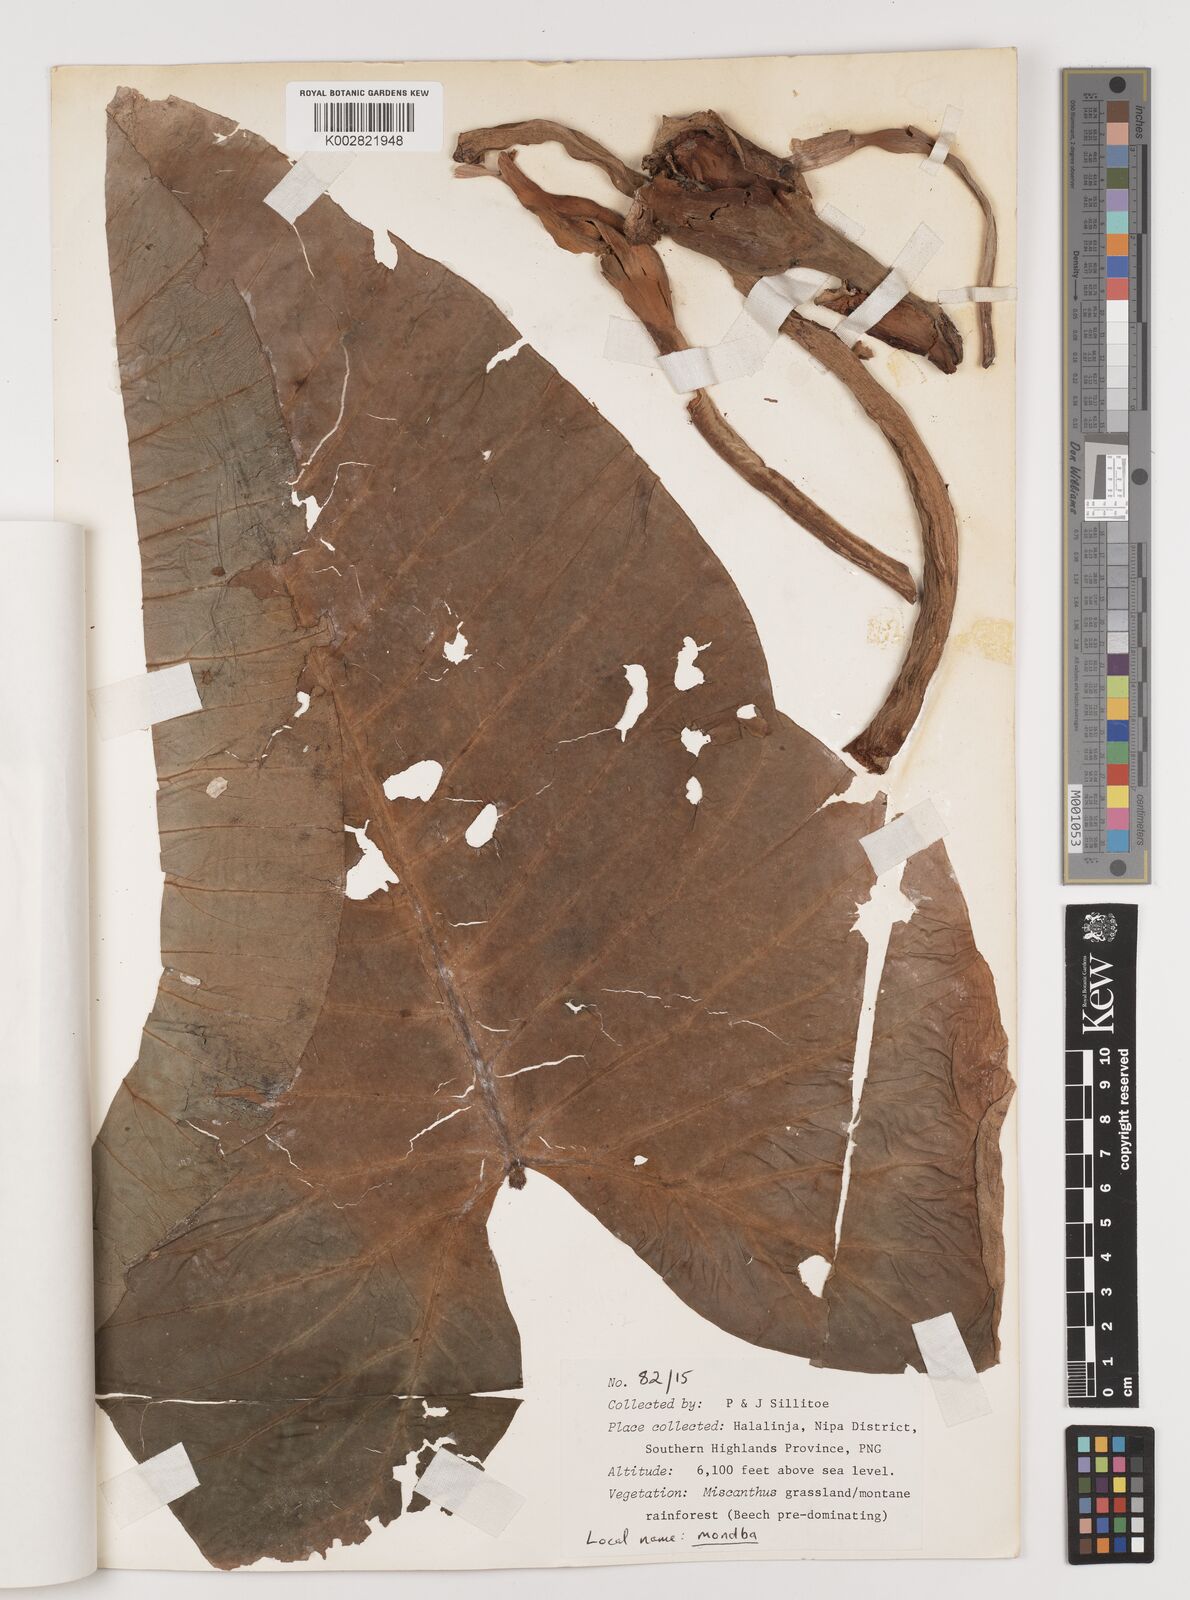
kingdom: Plantae
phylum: Tracheophyta
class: Liliopsida
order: Alismatales
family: Araceae
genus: Alocasia
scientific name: Alocasia macrorrhizos
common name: Giant taro
